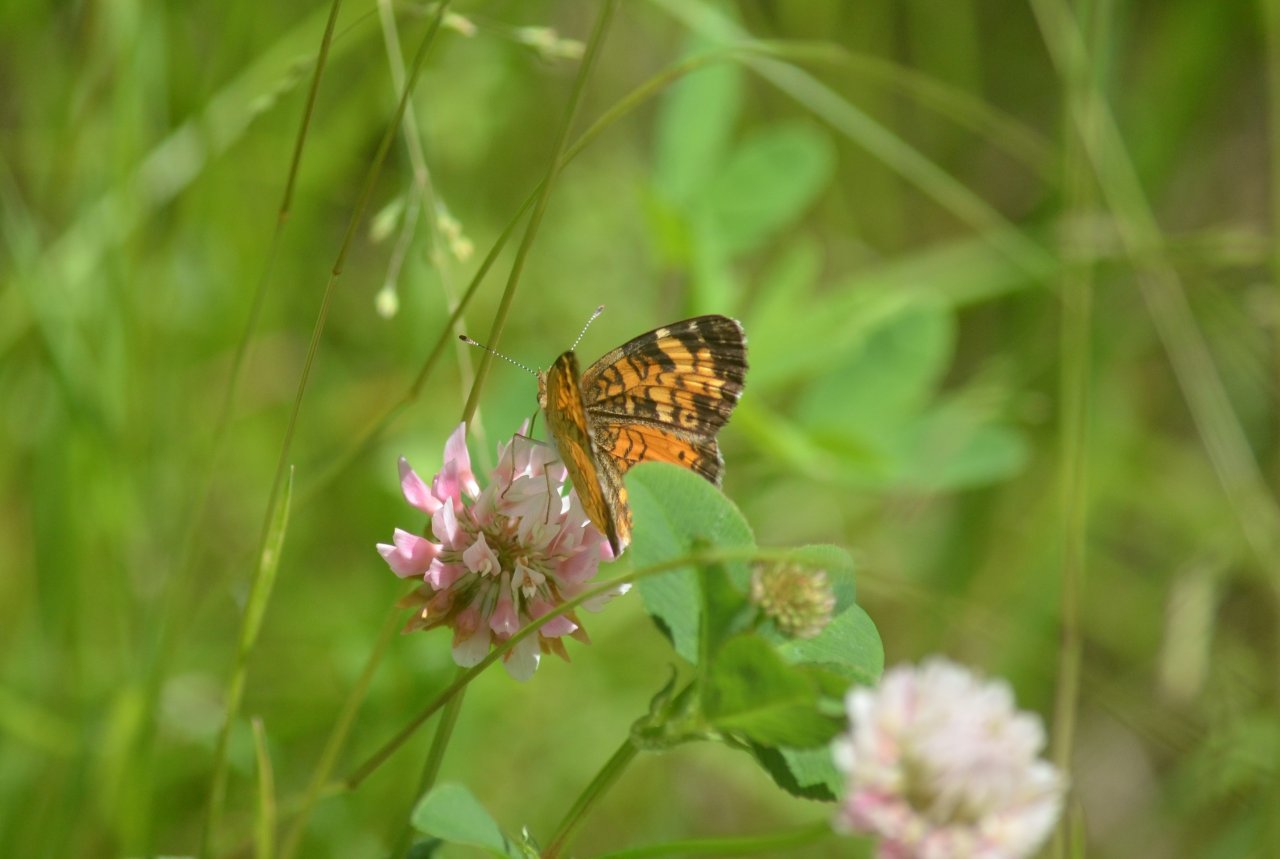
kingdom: Animalia
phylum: Arthropoda
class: Insecta
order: Lepidoptera
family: Nymphalidae
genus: Phyciodes
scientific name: Phyciodes tharos
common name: Northern Crescent
